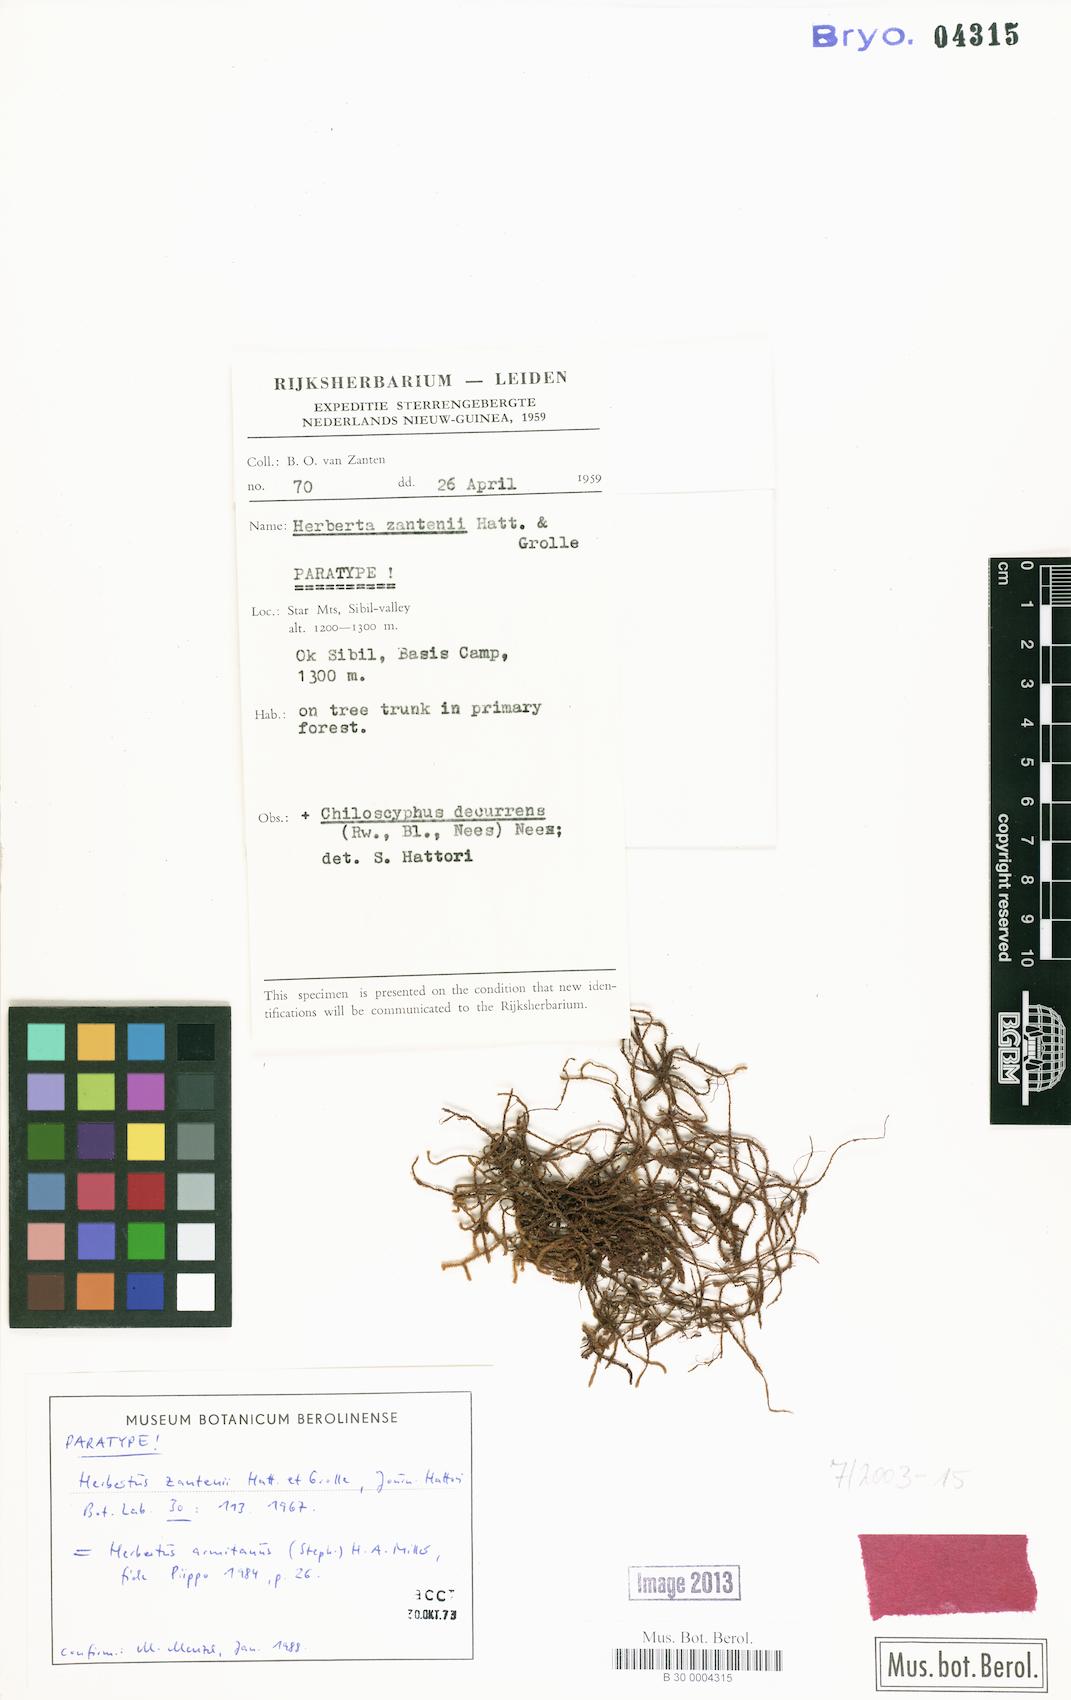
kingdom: Plantae
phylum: Marchantiophyta
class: Jungermanniopsida
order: Jungermanniales
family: Herbertaceae
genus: Herbertus
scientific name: Herbertus armitanus
